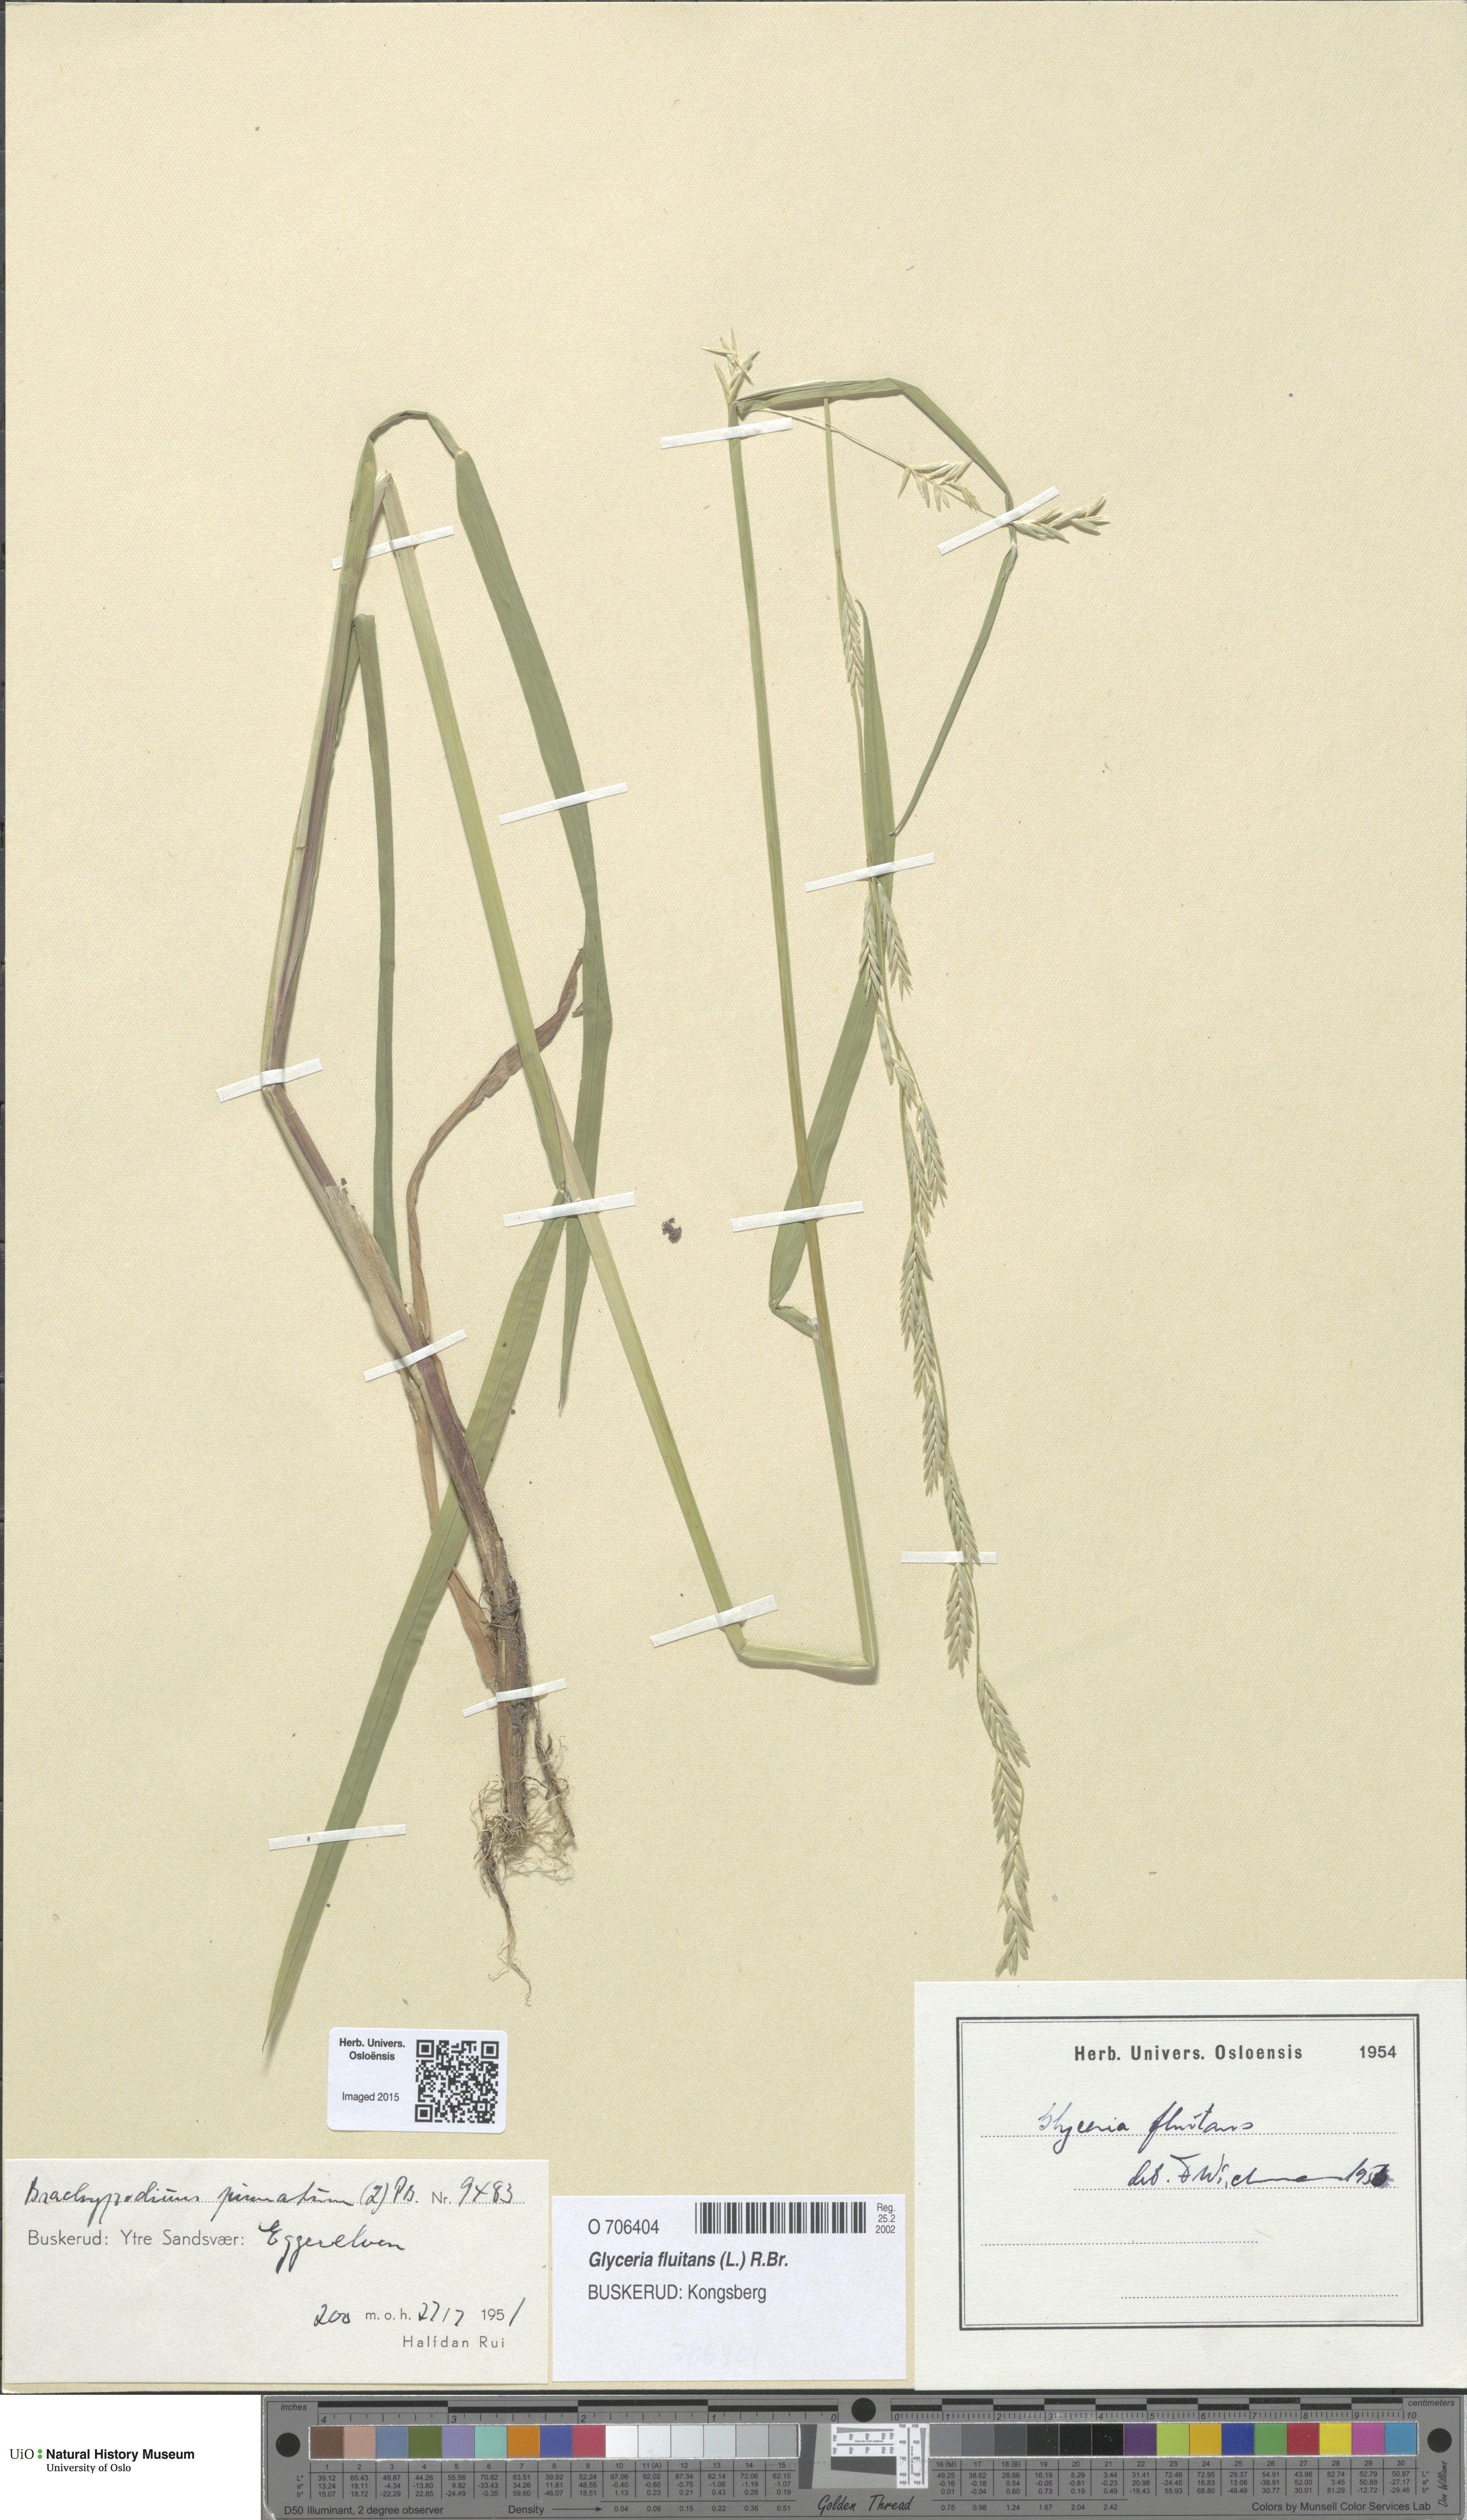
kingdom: Plantae
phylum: Tracheophyta
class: Liliopsida
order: Poales
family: Poaceae
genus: Glyceria
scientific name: Glyceria fluitans
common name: Floating sweet-grass
